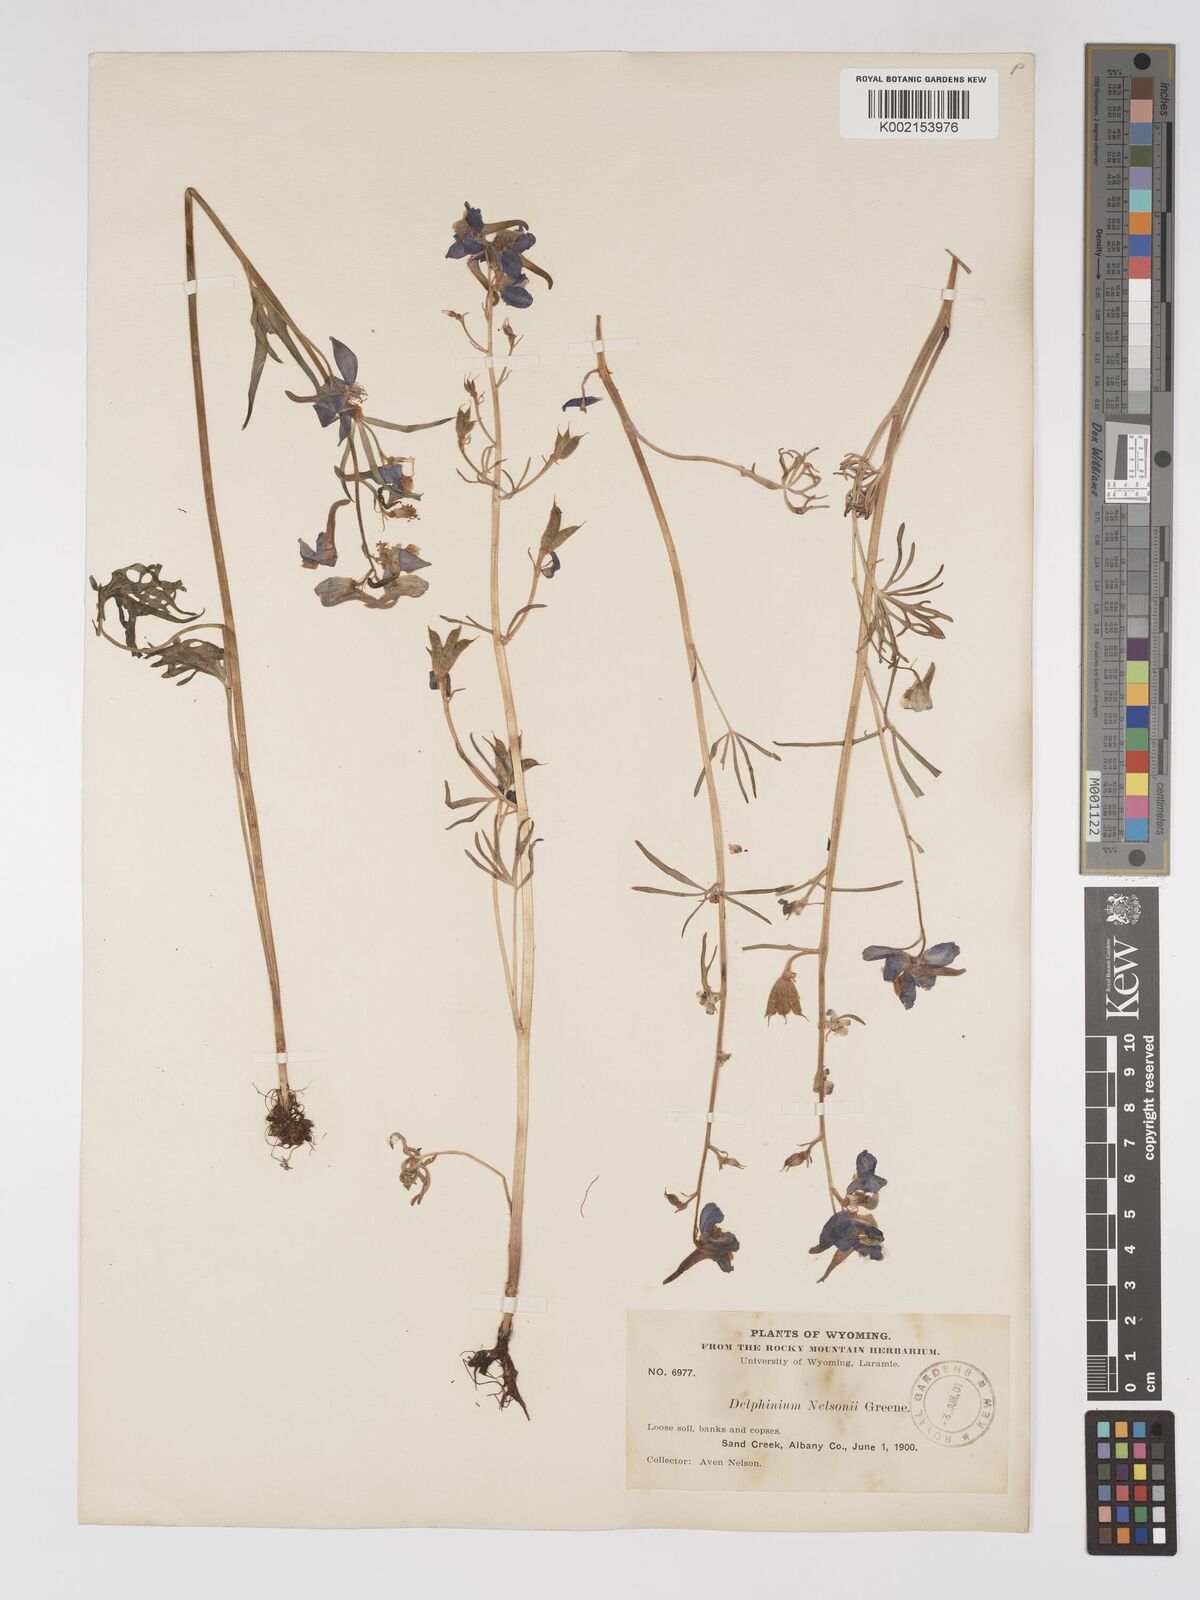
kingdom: Plantae
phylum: Tracheophyta
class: Magnoliopsida
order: Ranunculales
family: Ranunculaceae
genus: Delphinium
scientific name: Delphinium nuttallianum
